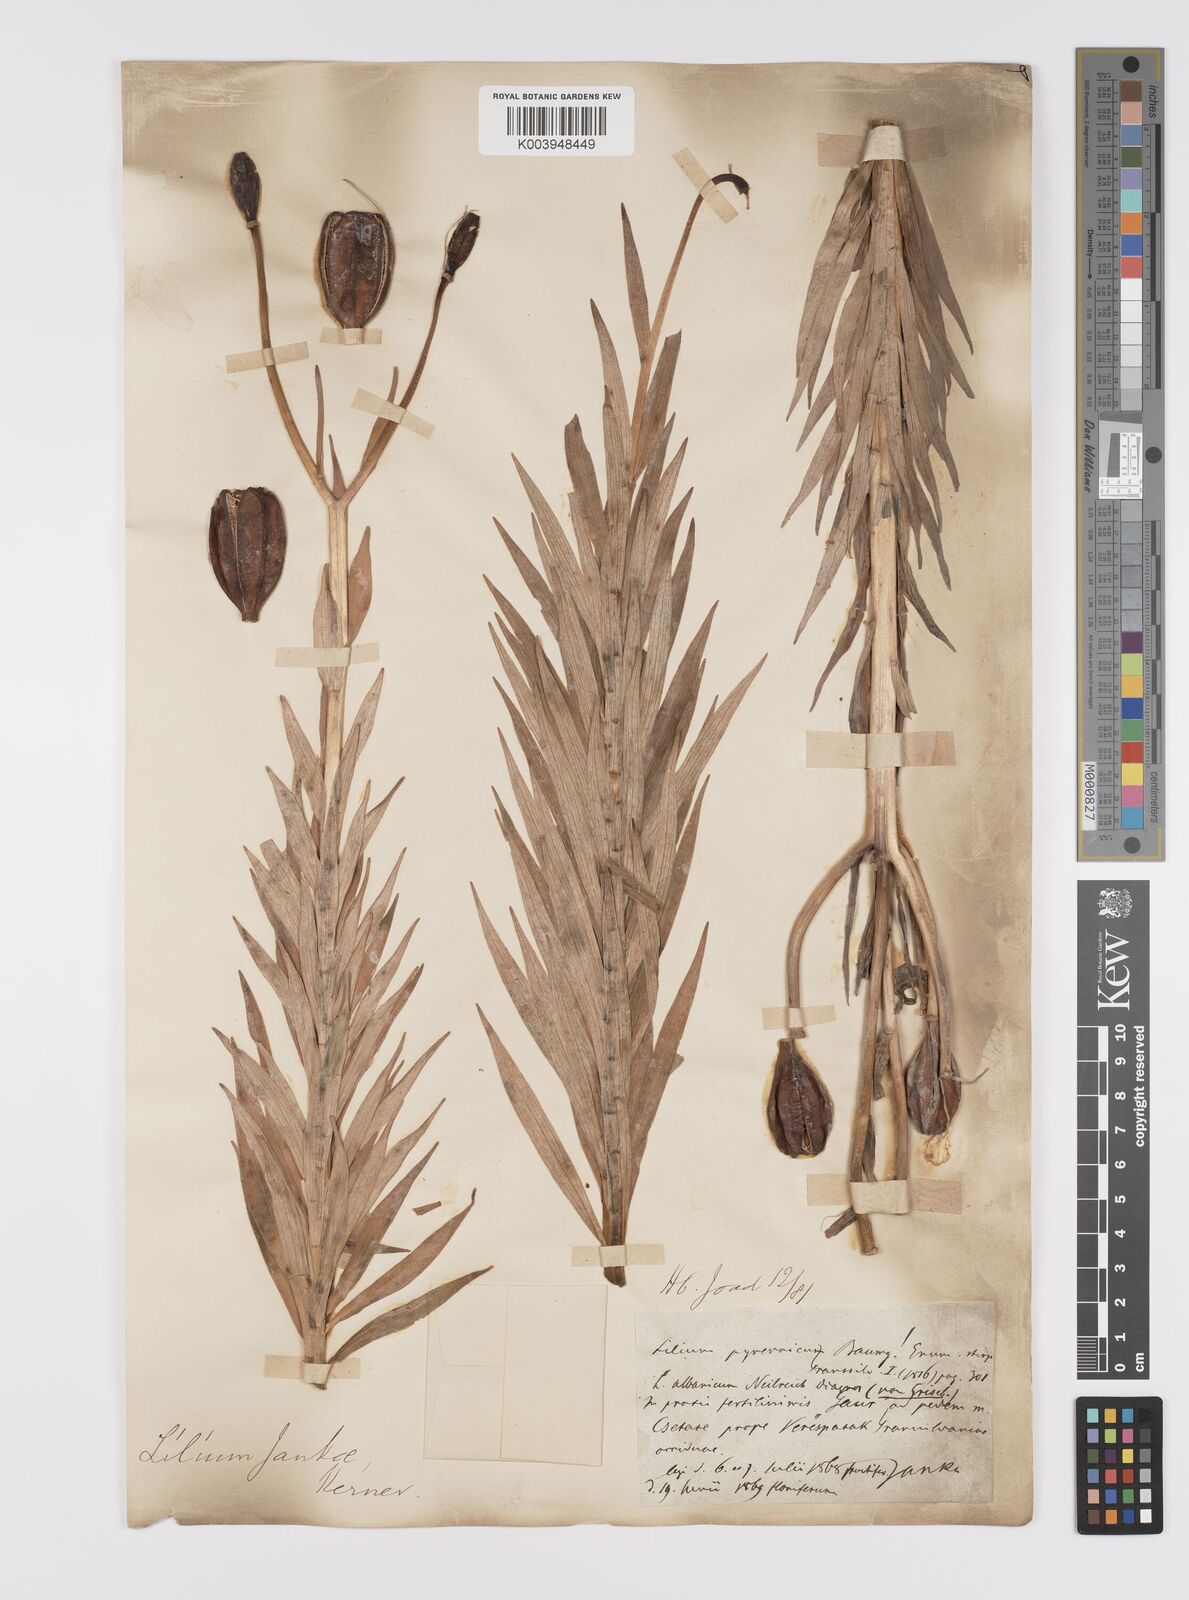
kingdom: Plantae
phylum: Tracheophyta
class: Liliopsida
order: Liliales
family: Liliaceae
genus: Lilium
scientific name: Lilium jankae
